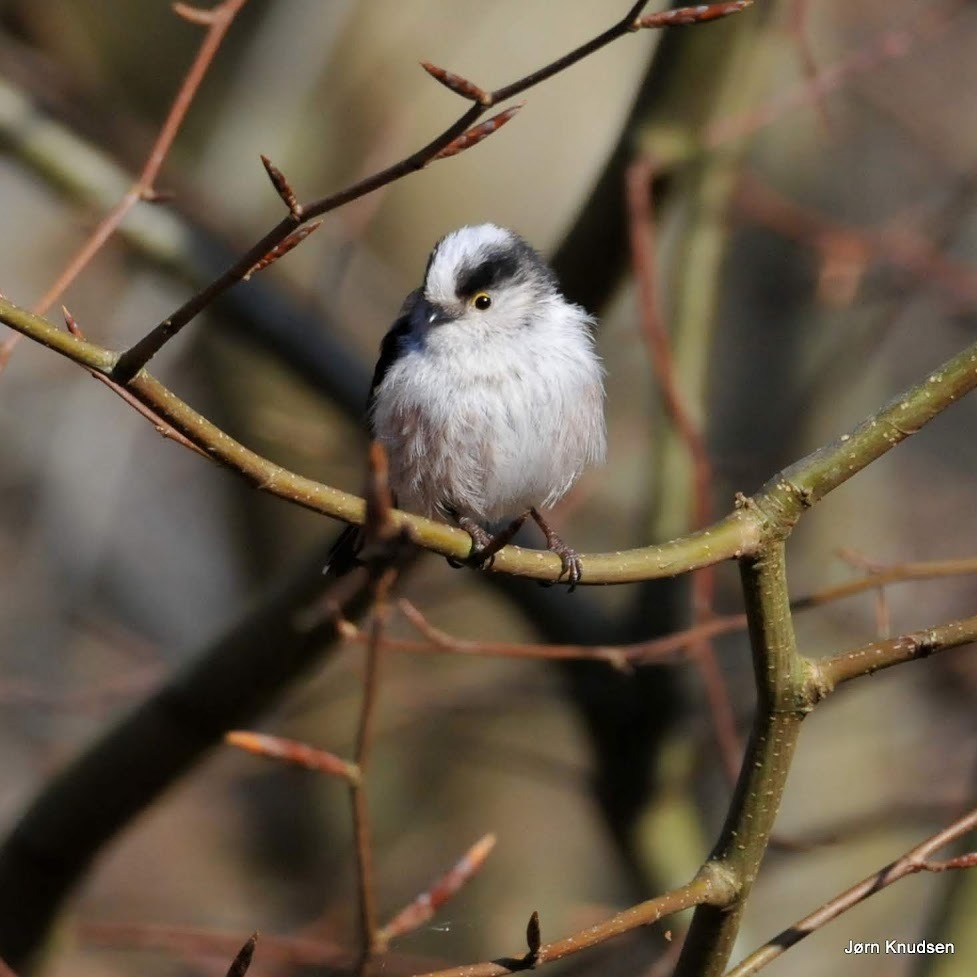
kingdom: Animalia
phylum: Chordata
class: Aves
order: Passeriformes
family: Aegithalidae
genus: Aegithalos
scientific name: Aegithalos caudatus
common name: Halemejse
